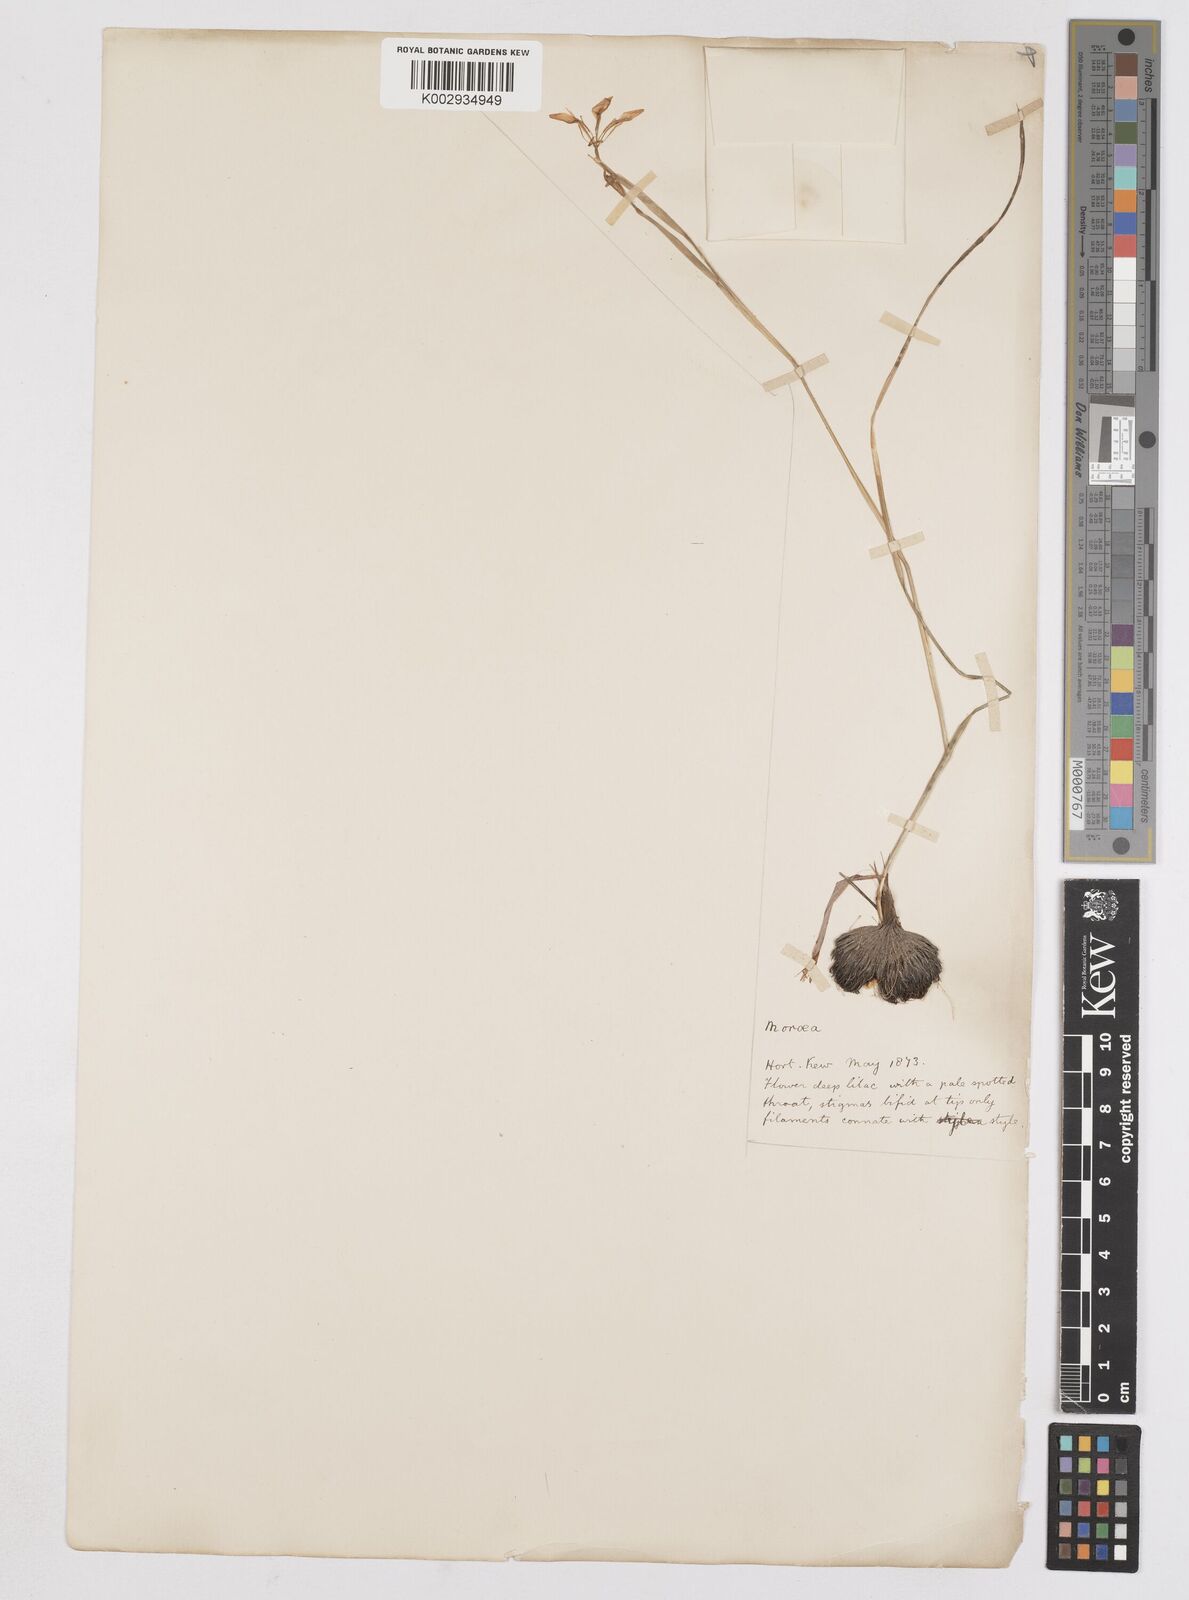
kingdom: Plantae
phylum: Tracheophyta
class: Liliopsida
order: Asparagales
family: Iridaceae
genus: Moraea
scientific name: Moraea
